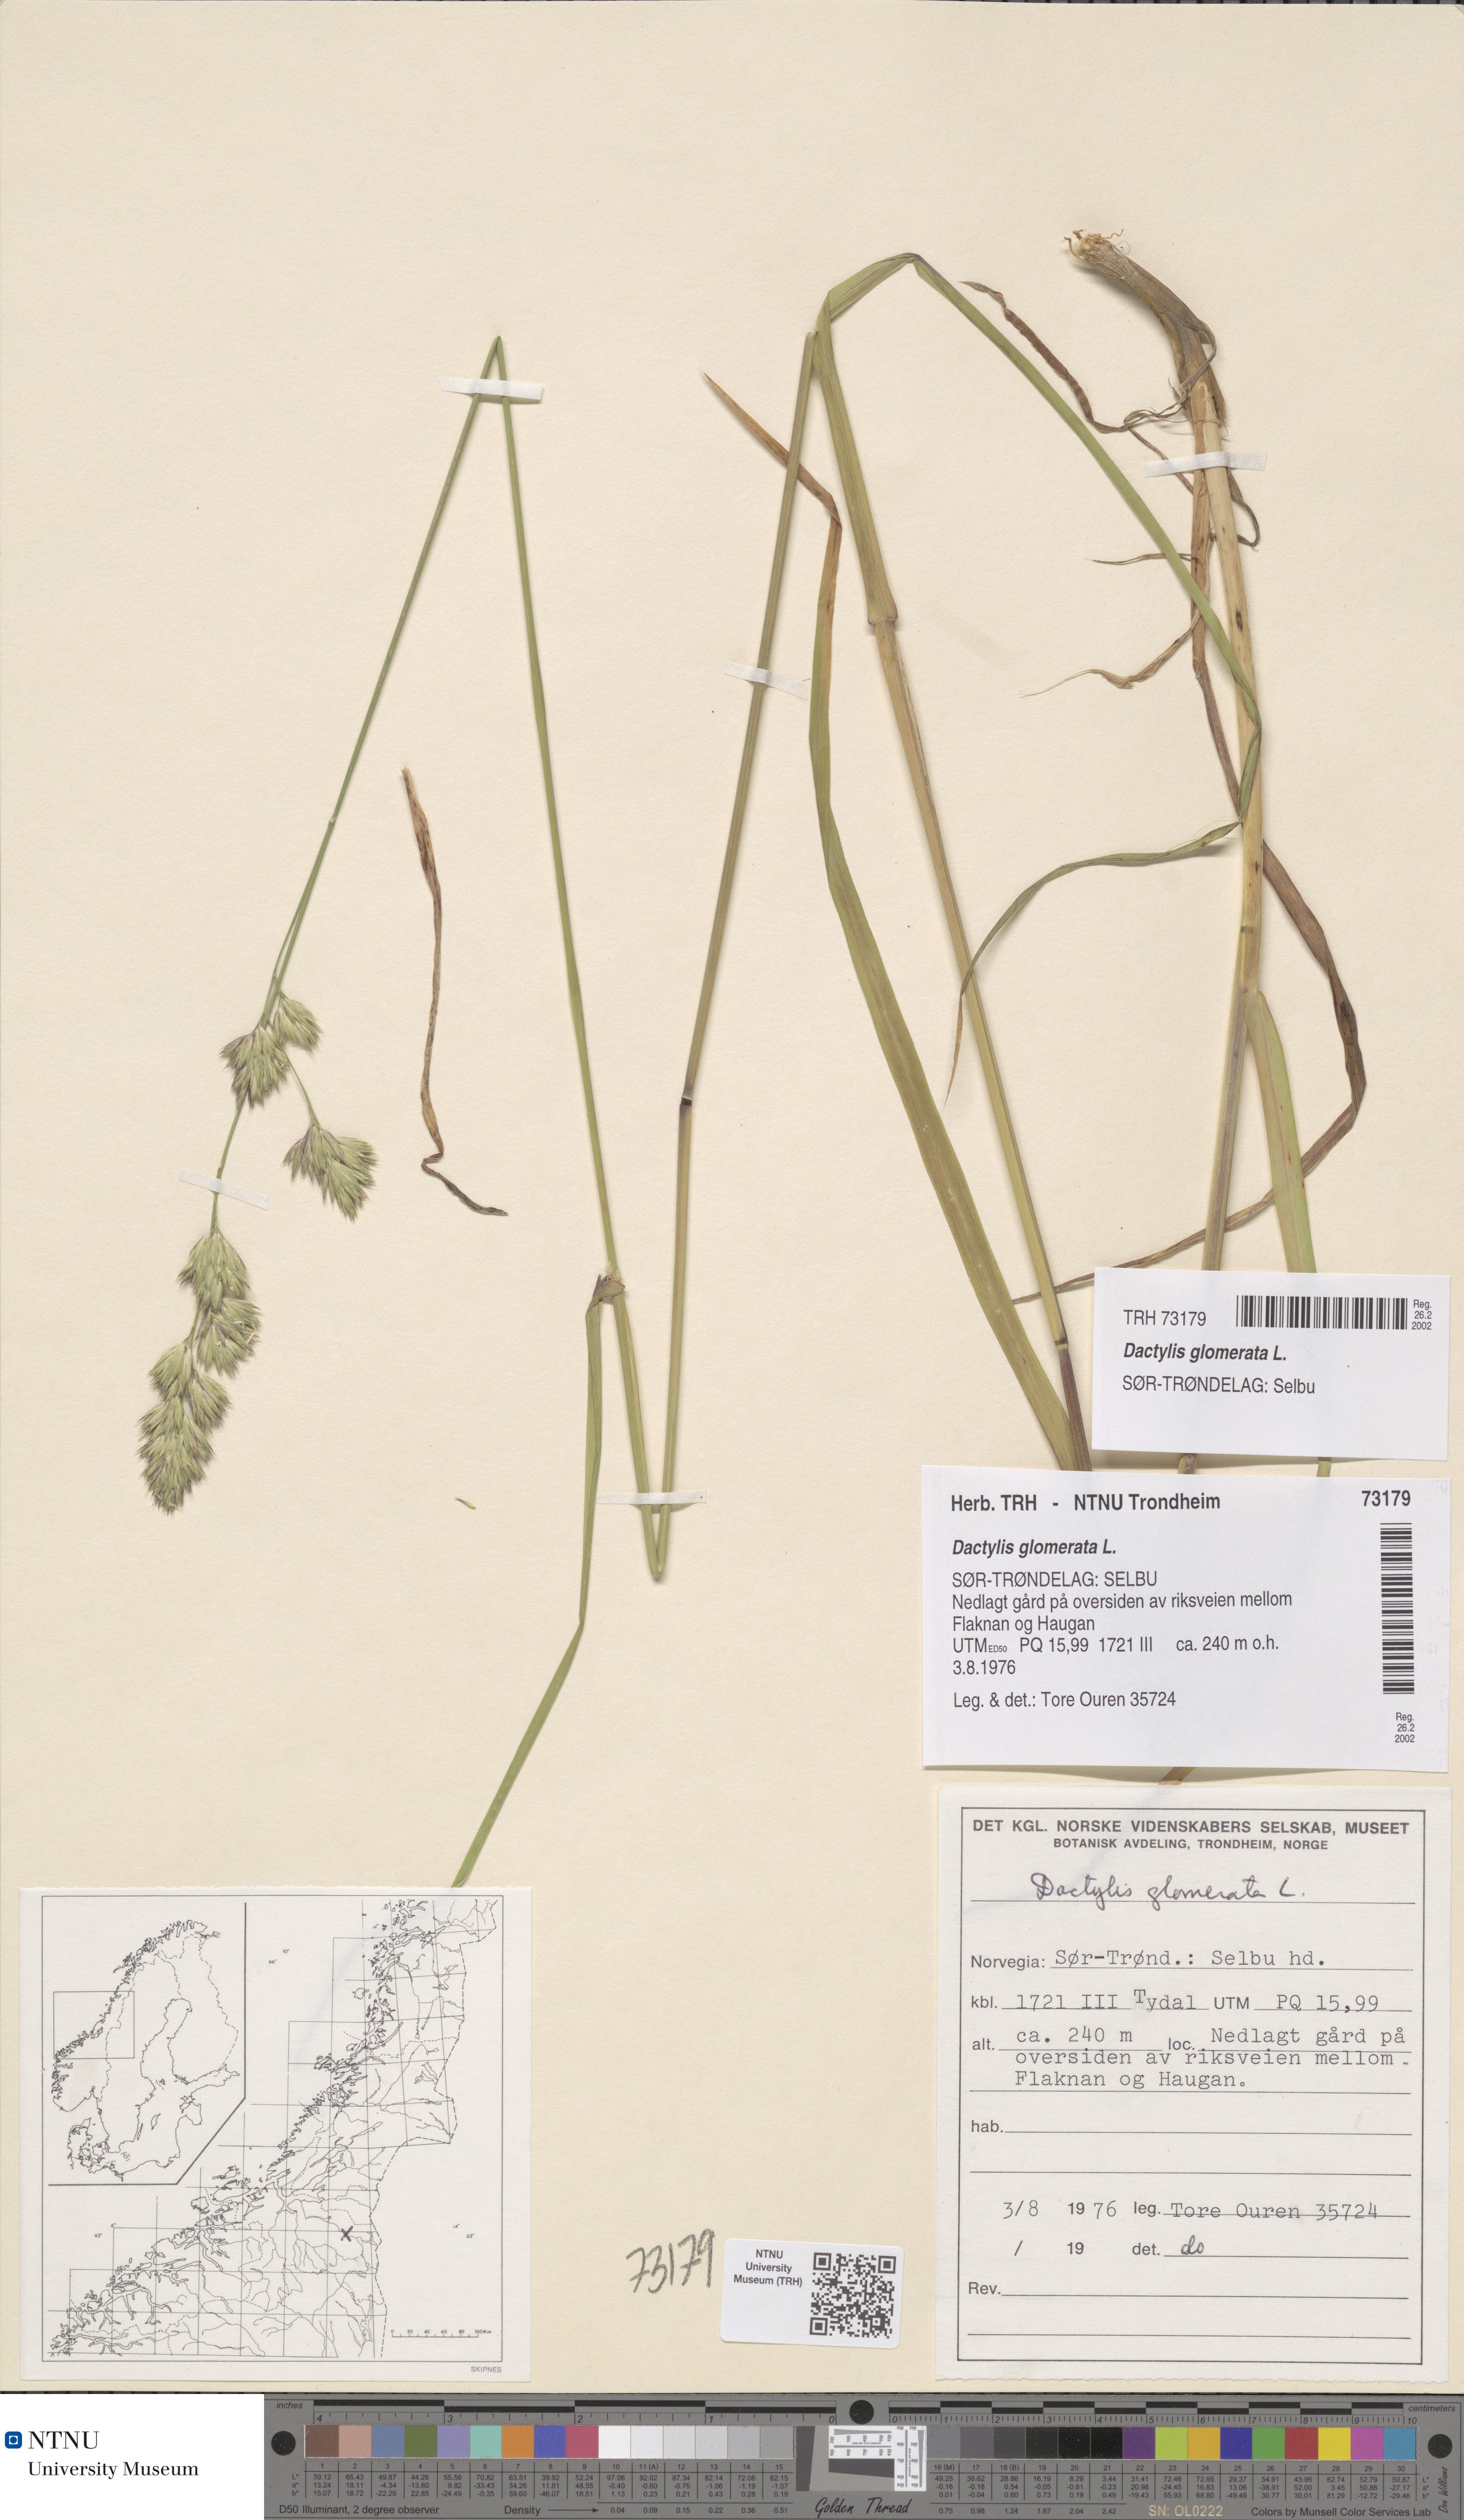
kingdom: Plantae
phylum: Tracheophyta
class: Liliopsida
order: Poales
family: Poaceae
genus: Dactylis
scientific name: Dactylis glomerata
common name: Orchardgrass
